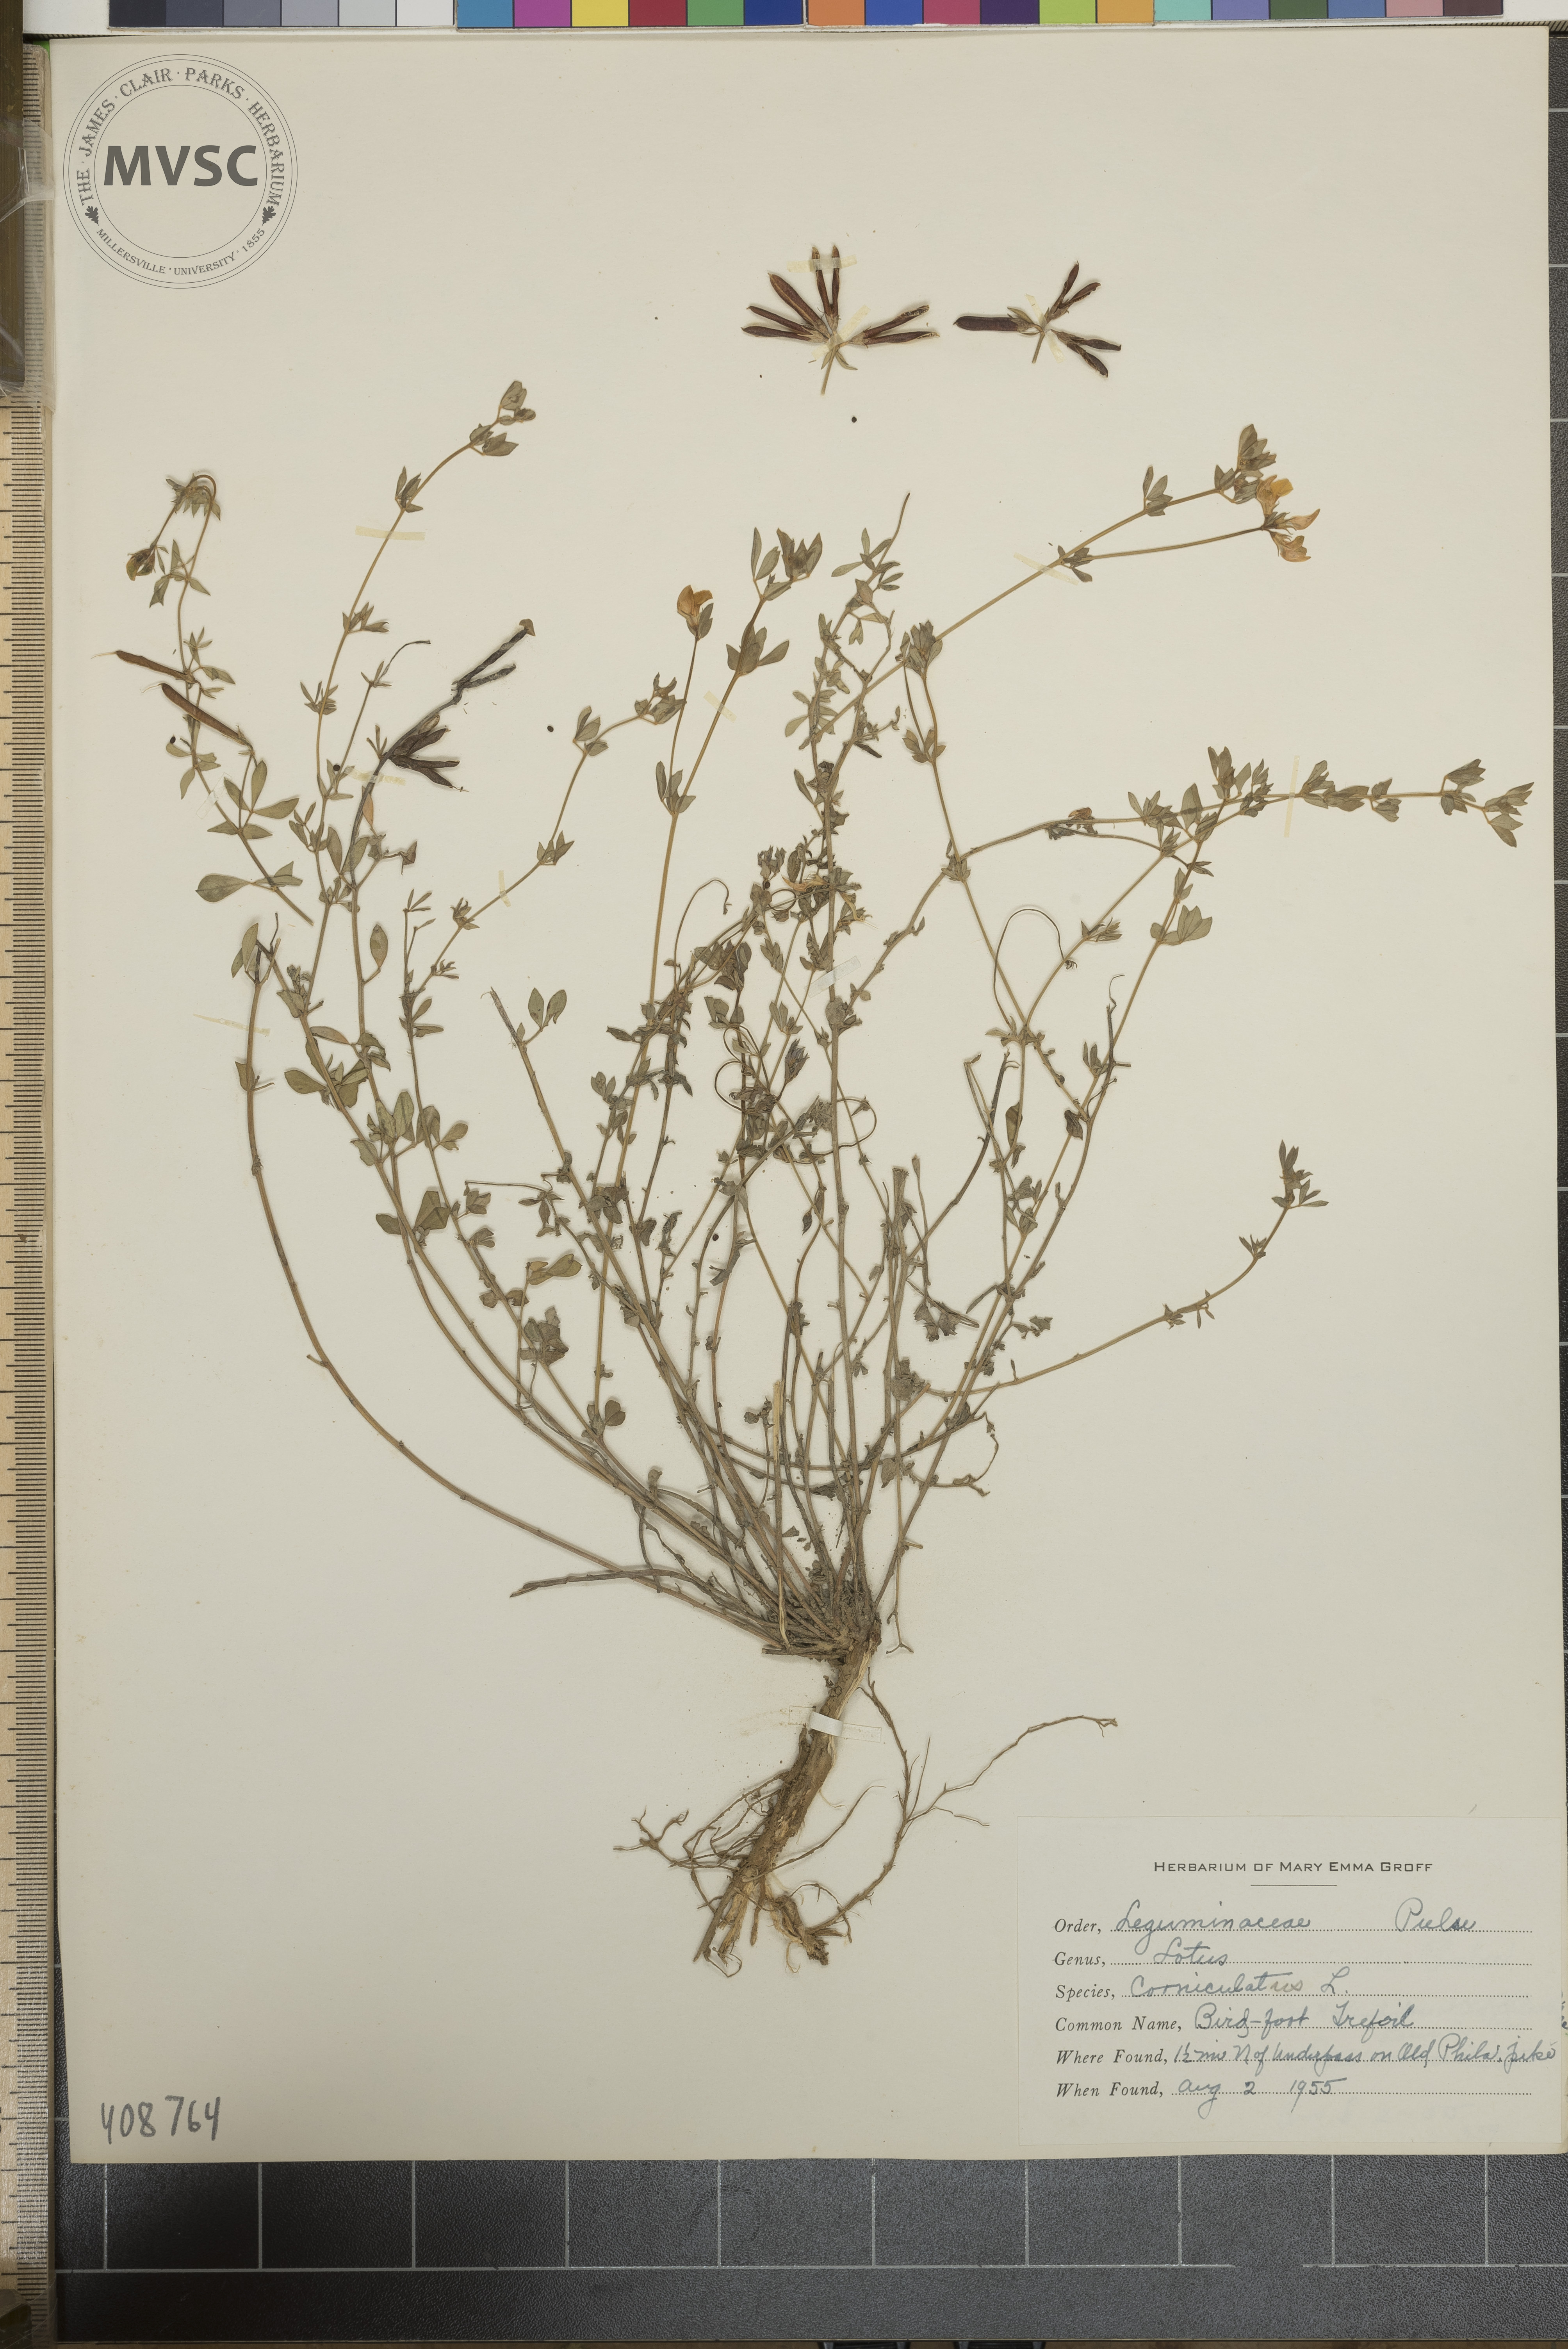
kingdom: Plantae
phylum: Tracheophyta
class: Magnoliopsida
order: Fabales
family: Fabaceae
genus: Lotus
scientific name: Lotus corniculatus
